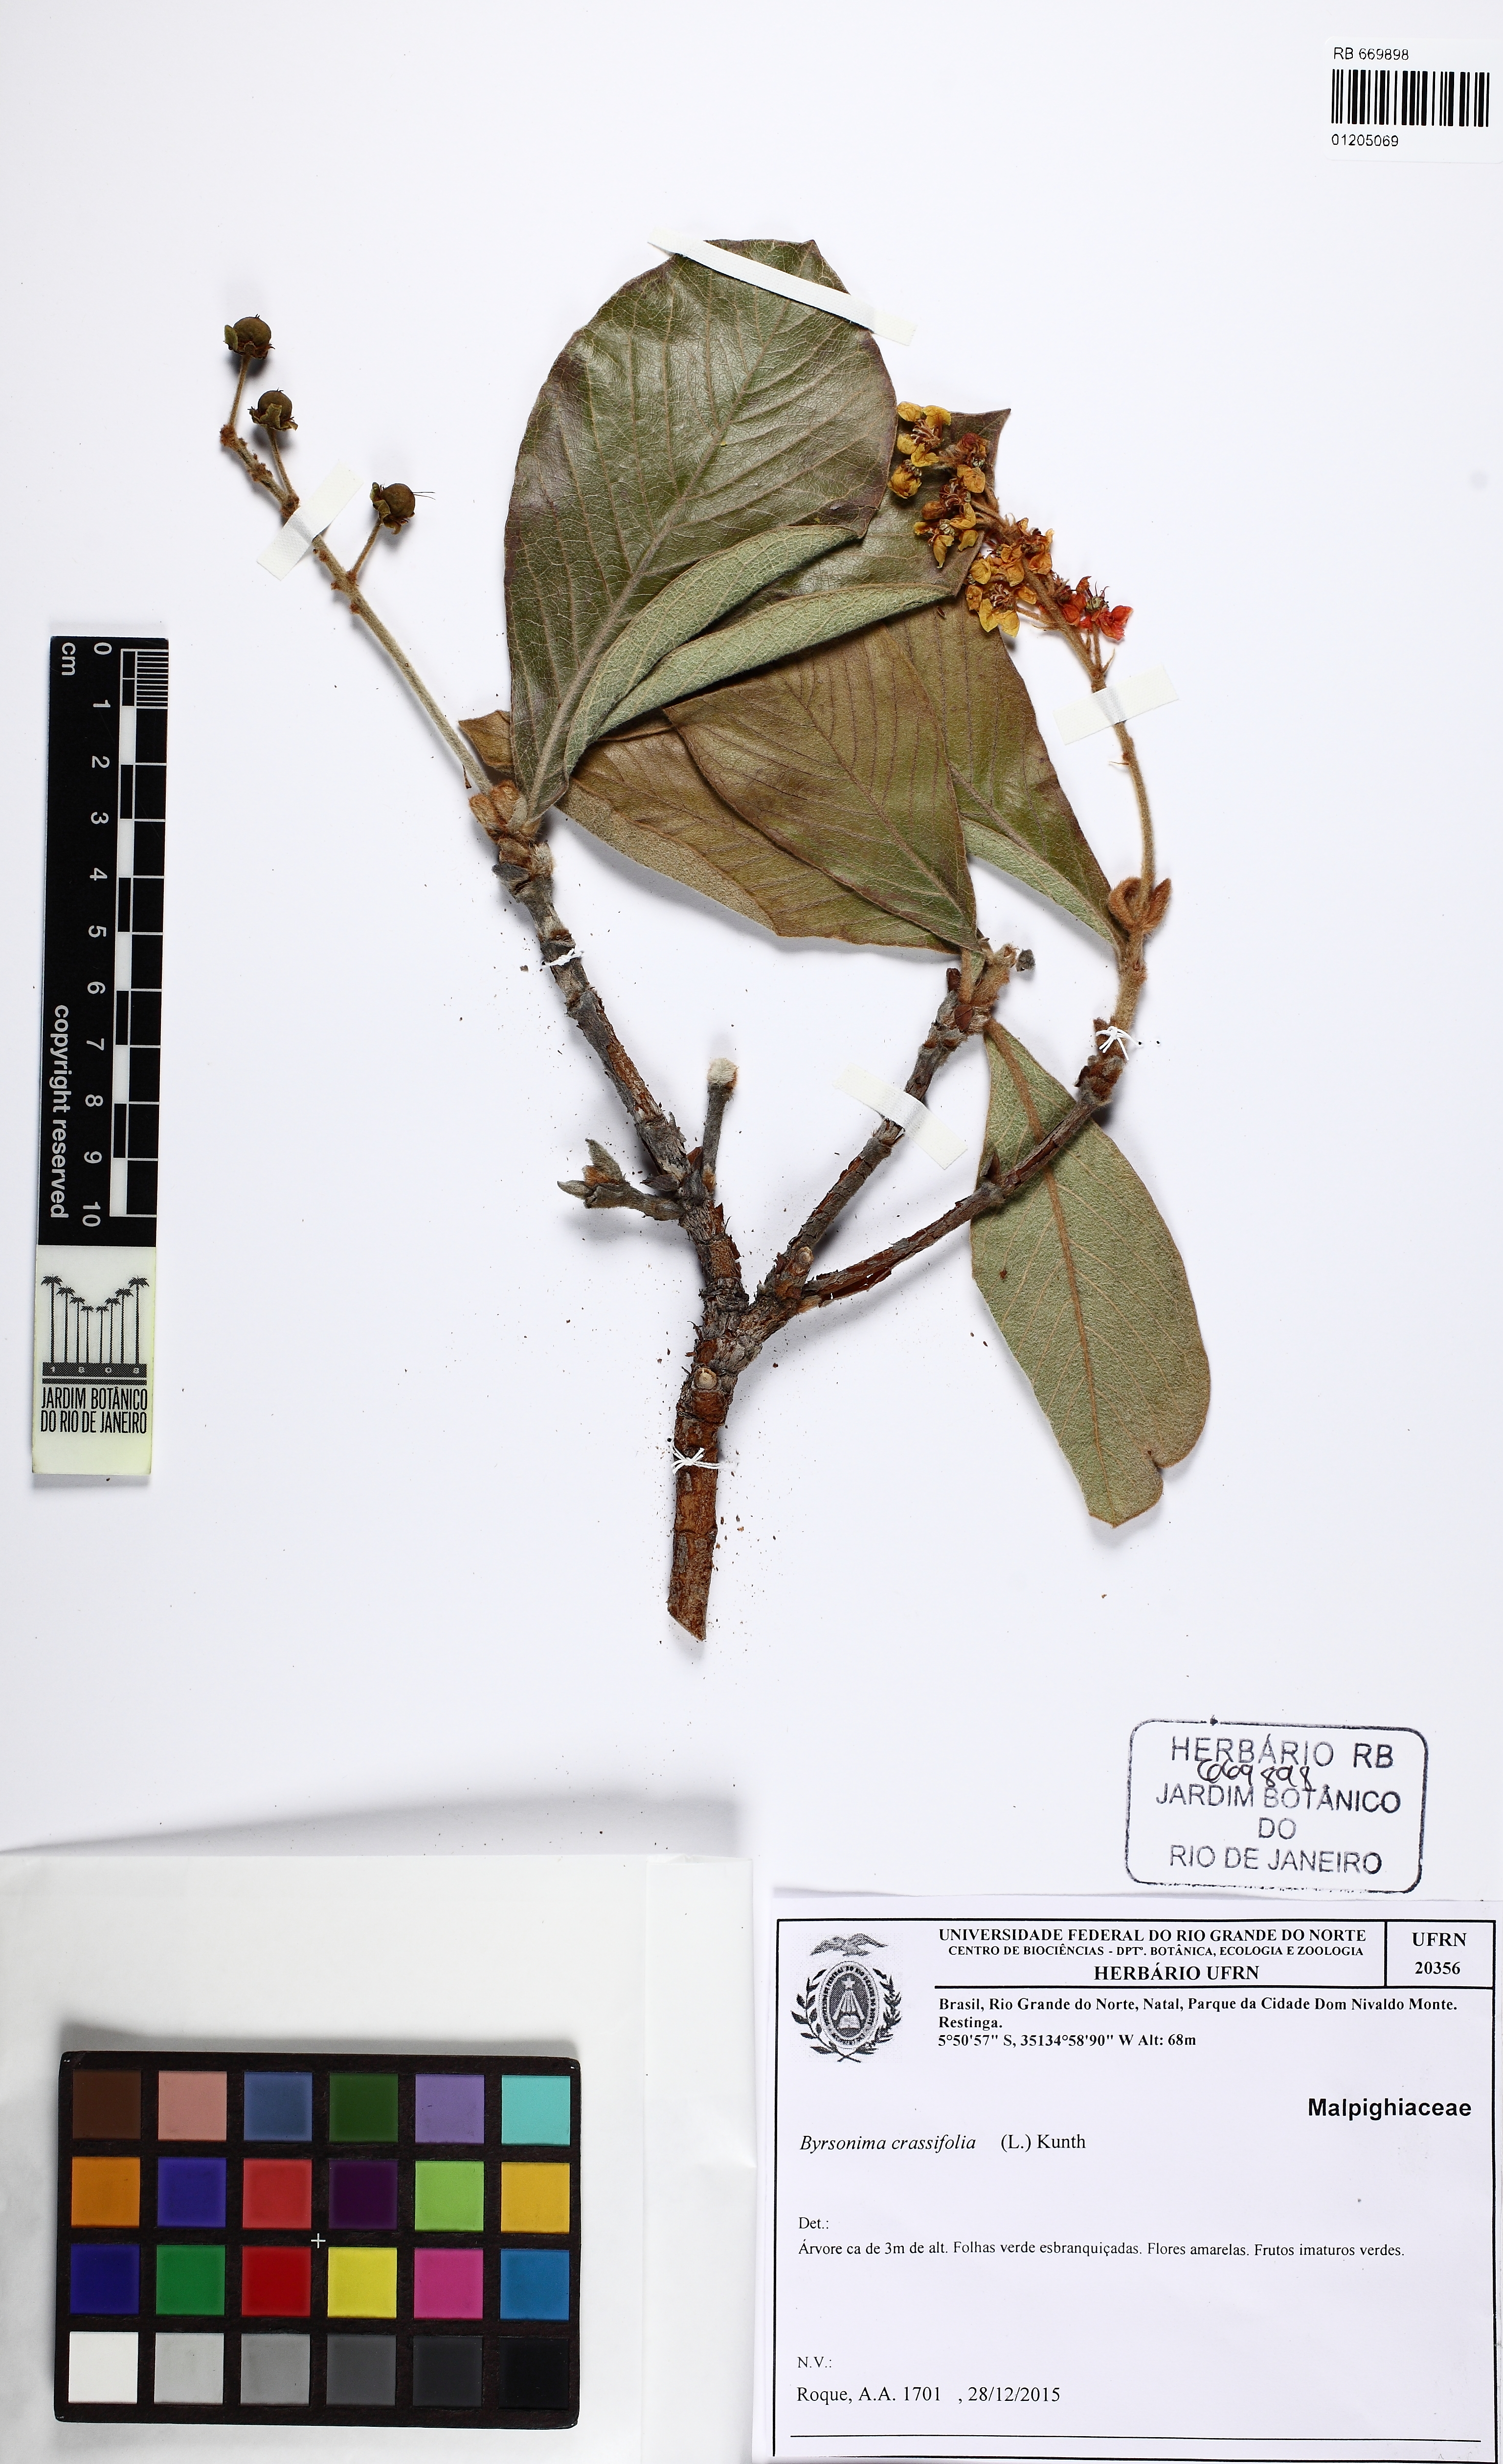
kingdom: Plantae
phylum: Tracheophyta
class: Magnoliopsida
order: Malpighiales
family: Malpighiaceae
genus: Byrsonima
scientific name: Byrsonima crassifolia
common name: Golden spoon
